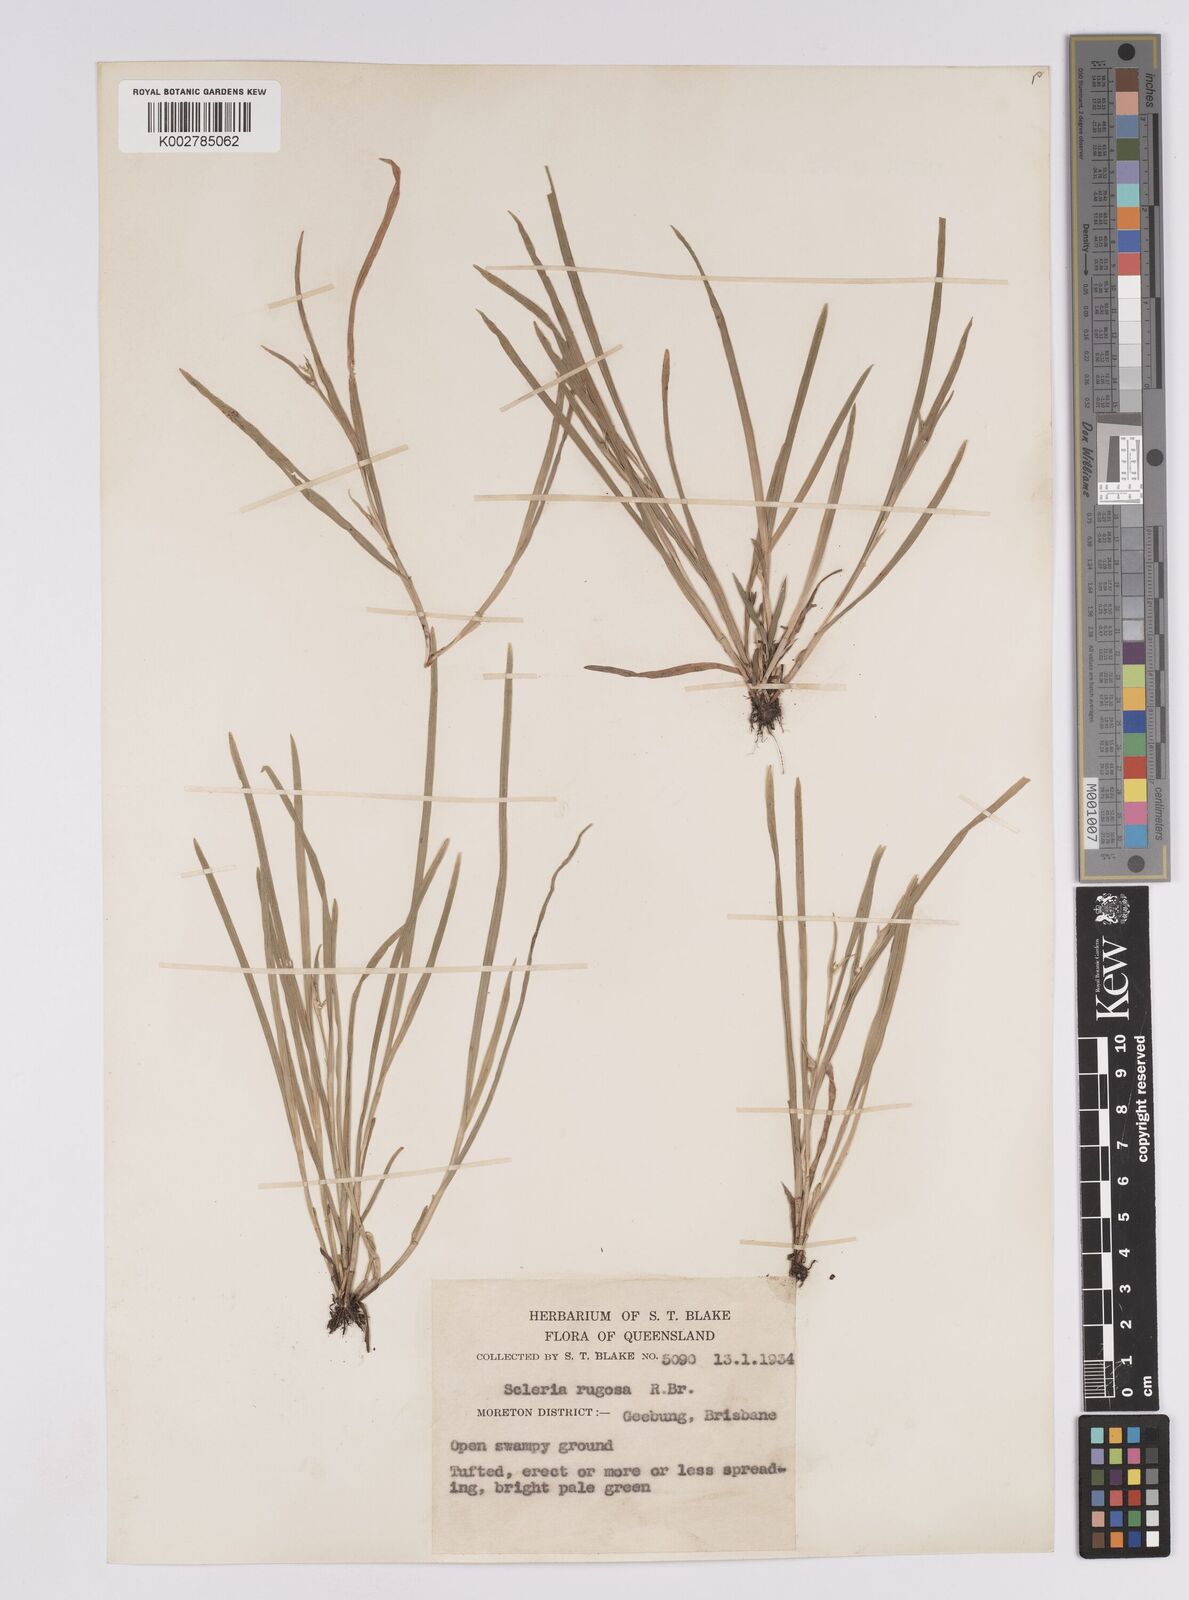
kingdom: Plantae
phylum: Tracheophyta
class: Liliopsida
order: Poales
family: Cyperaceae
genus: Scleria
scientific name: Scleria rugosa
